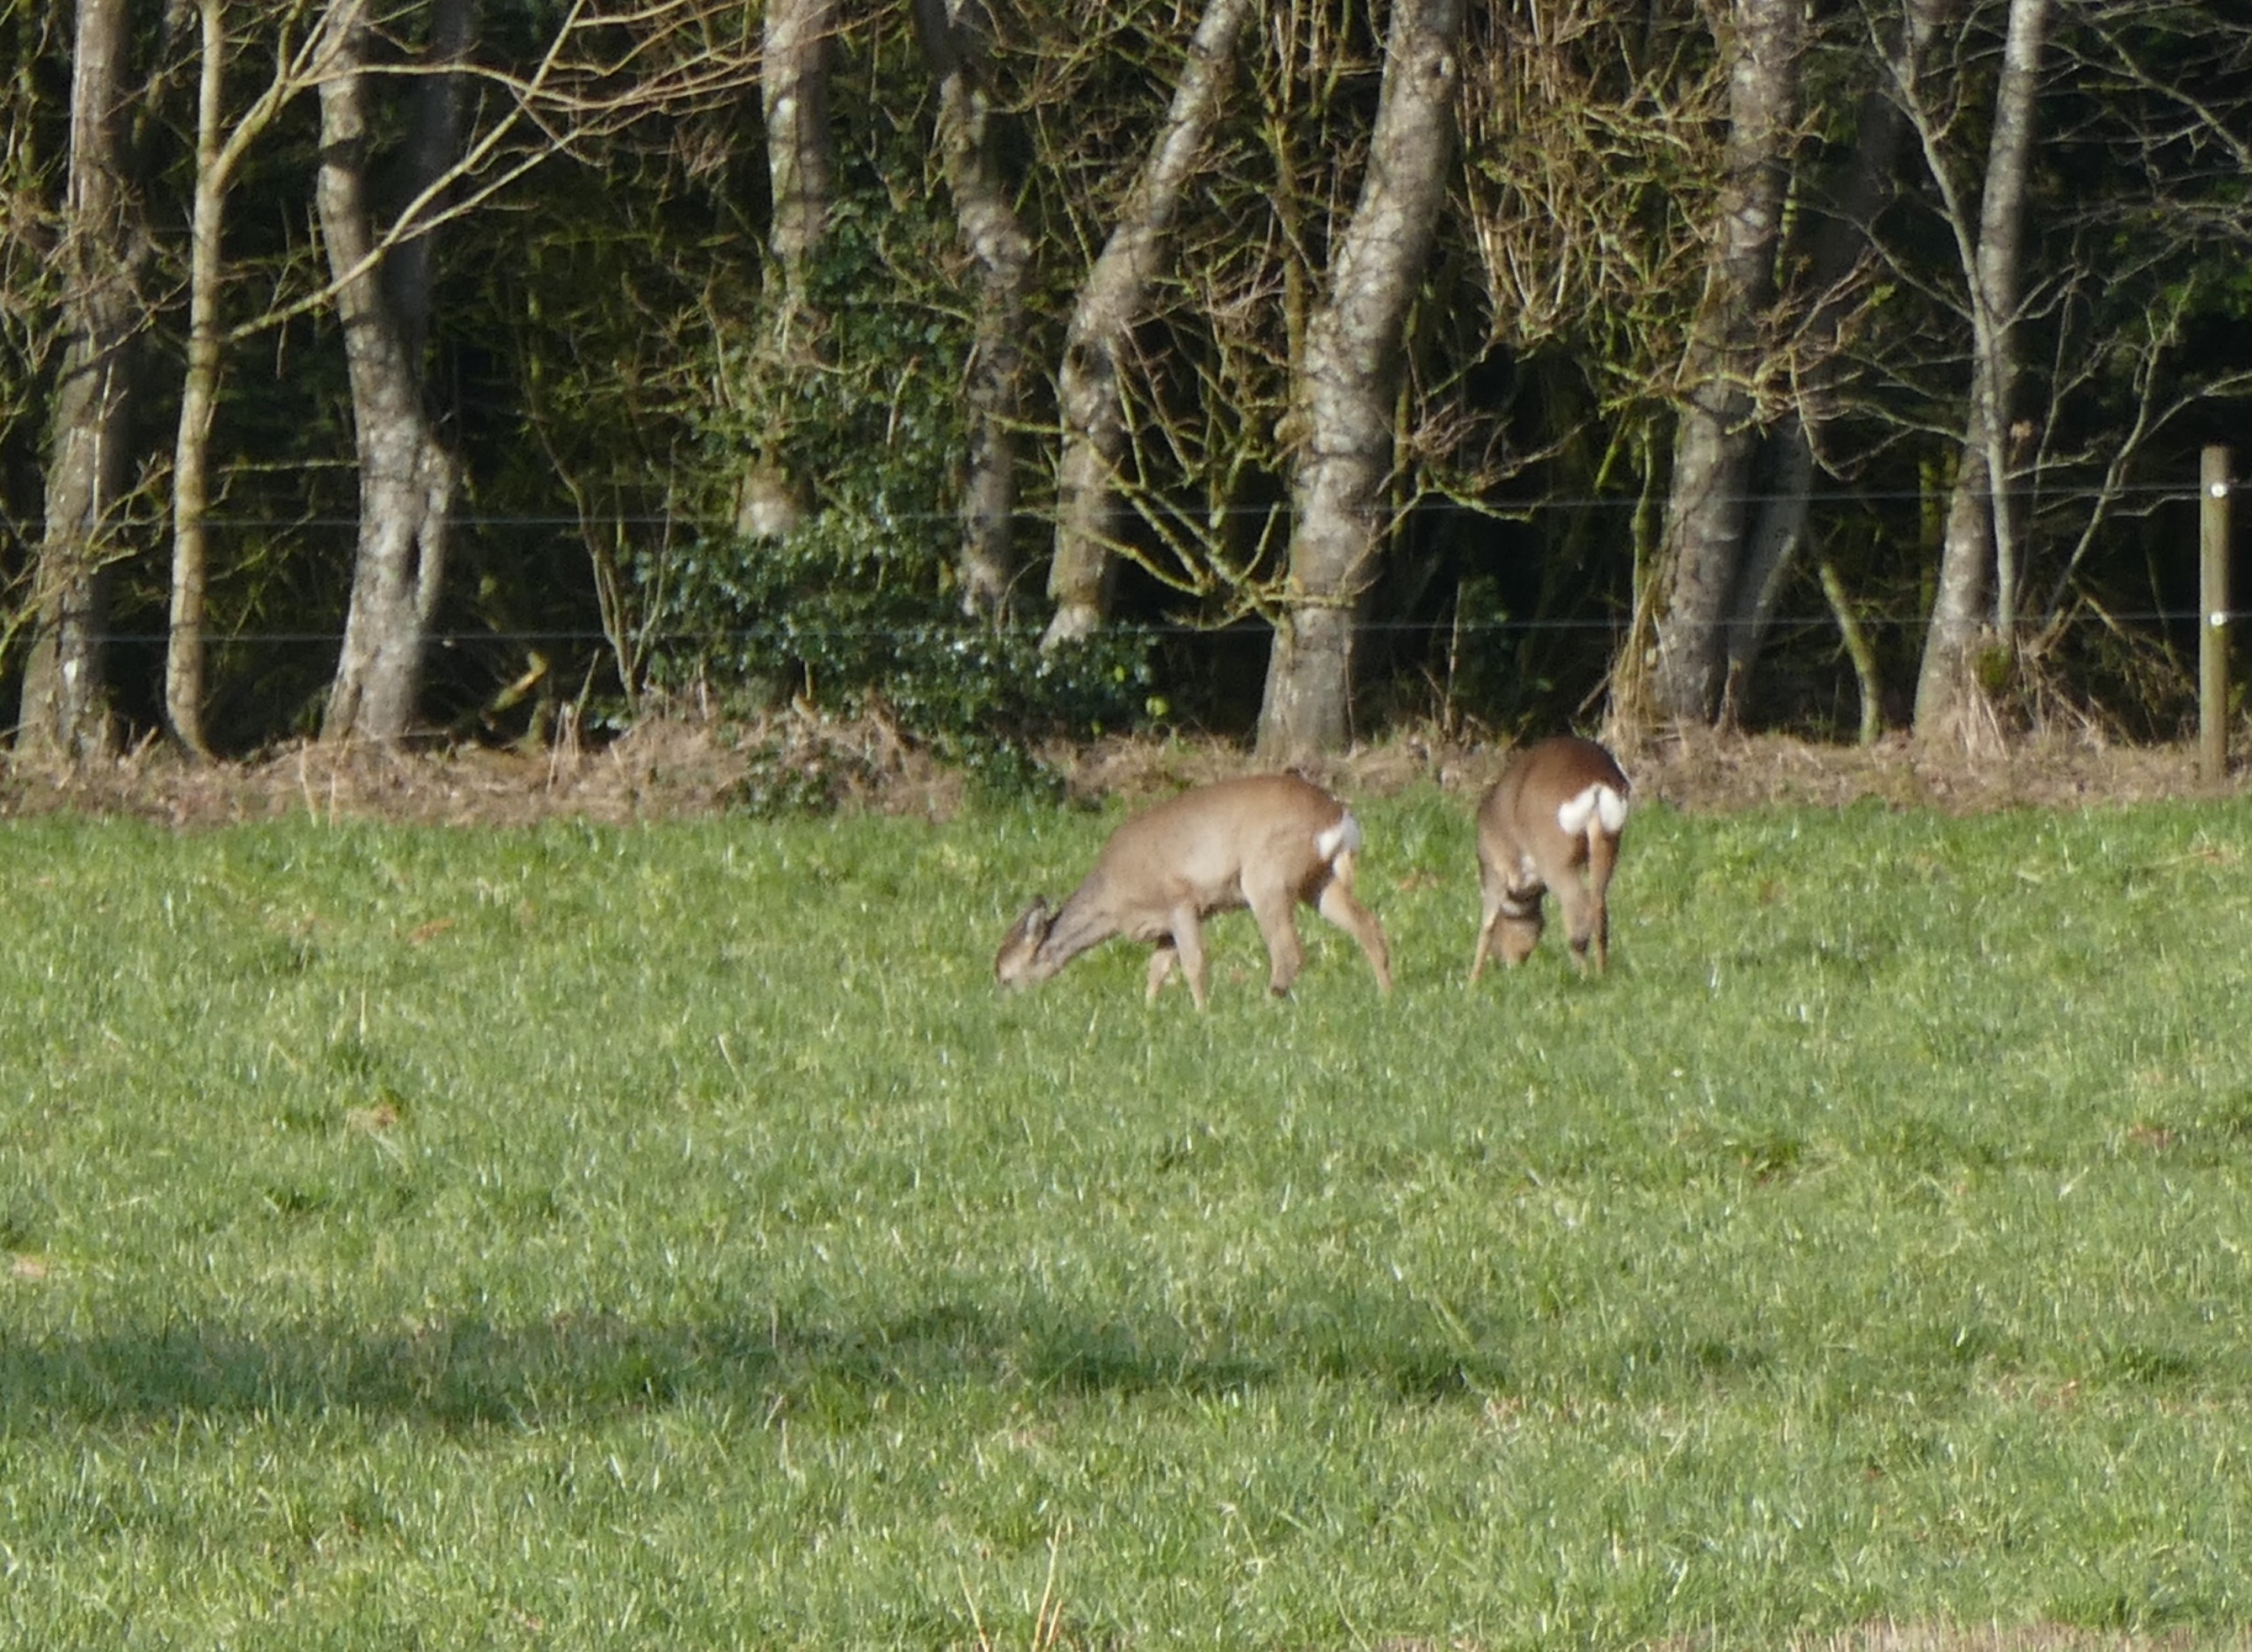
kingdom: Animalia
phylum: Chordata
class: Mammalia
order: Artiodactyla
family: Cervidae
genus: Capreolus
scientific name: Capreolus capreolus
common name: Rådyr
